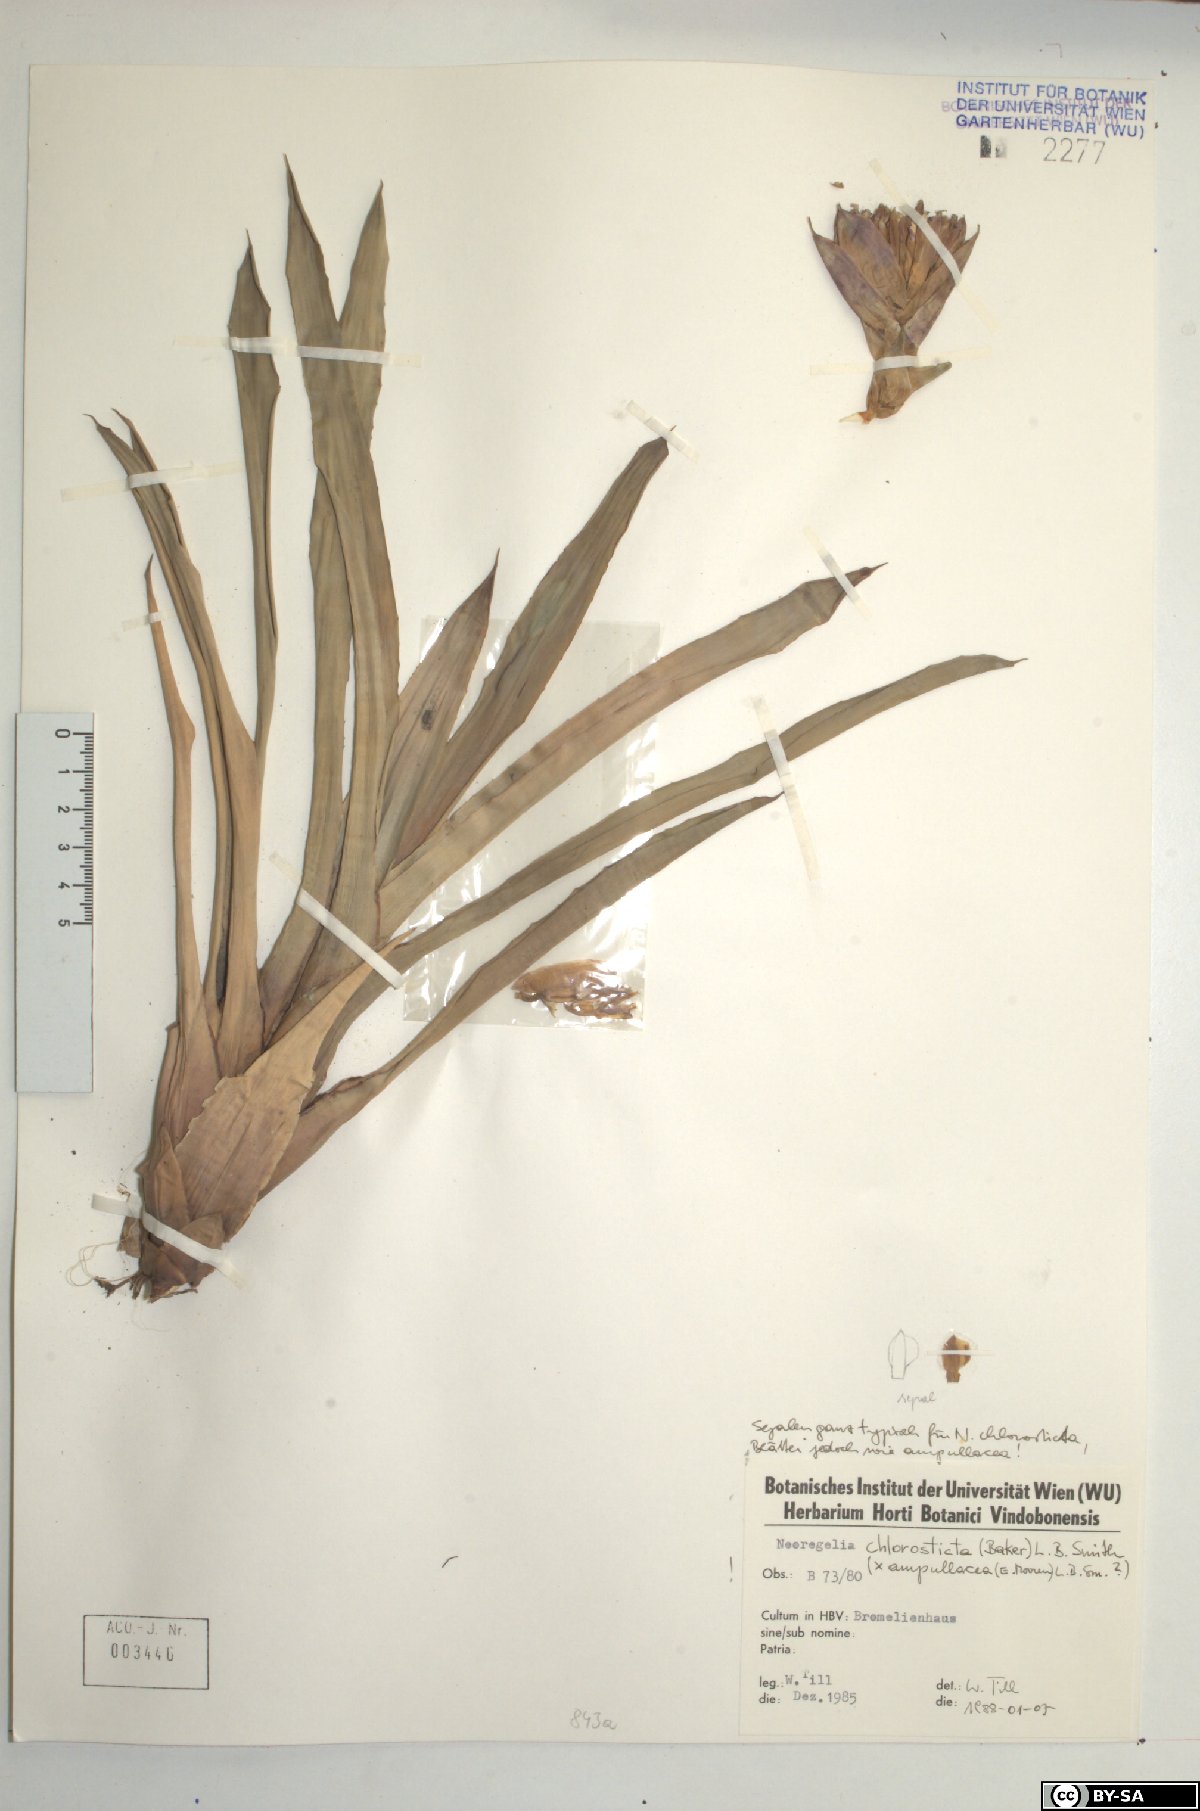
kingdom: Plantae
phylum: Tracheophyta
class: Liliopsida
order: Poales
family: Bromeliaceae
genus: Neoregelia
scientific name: Neoregelia ampullacea
